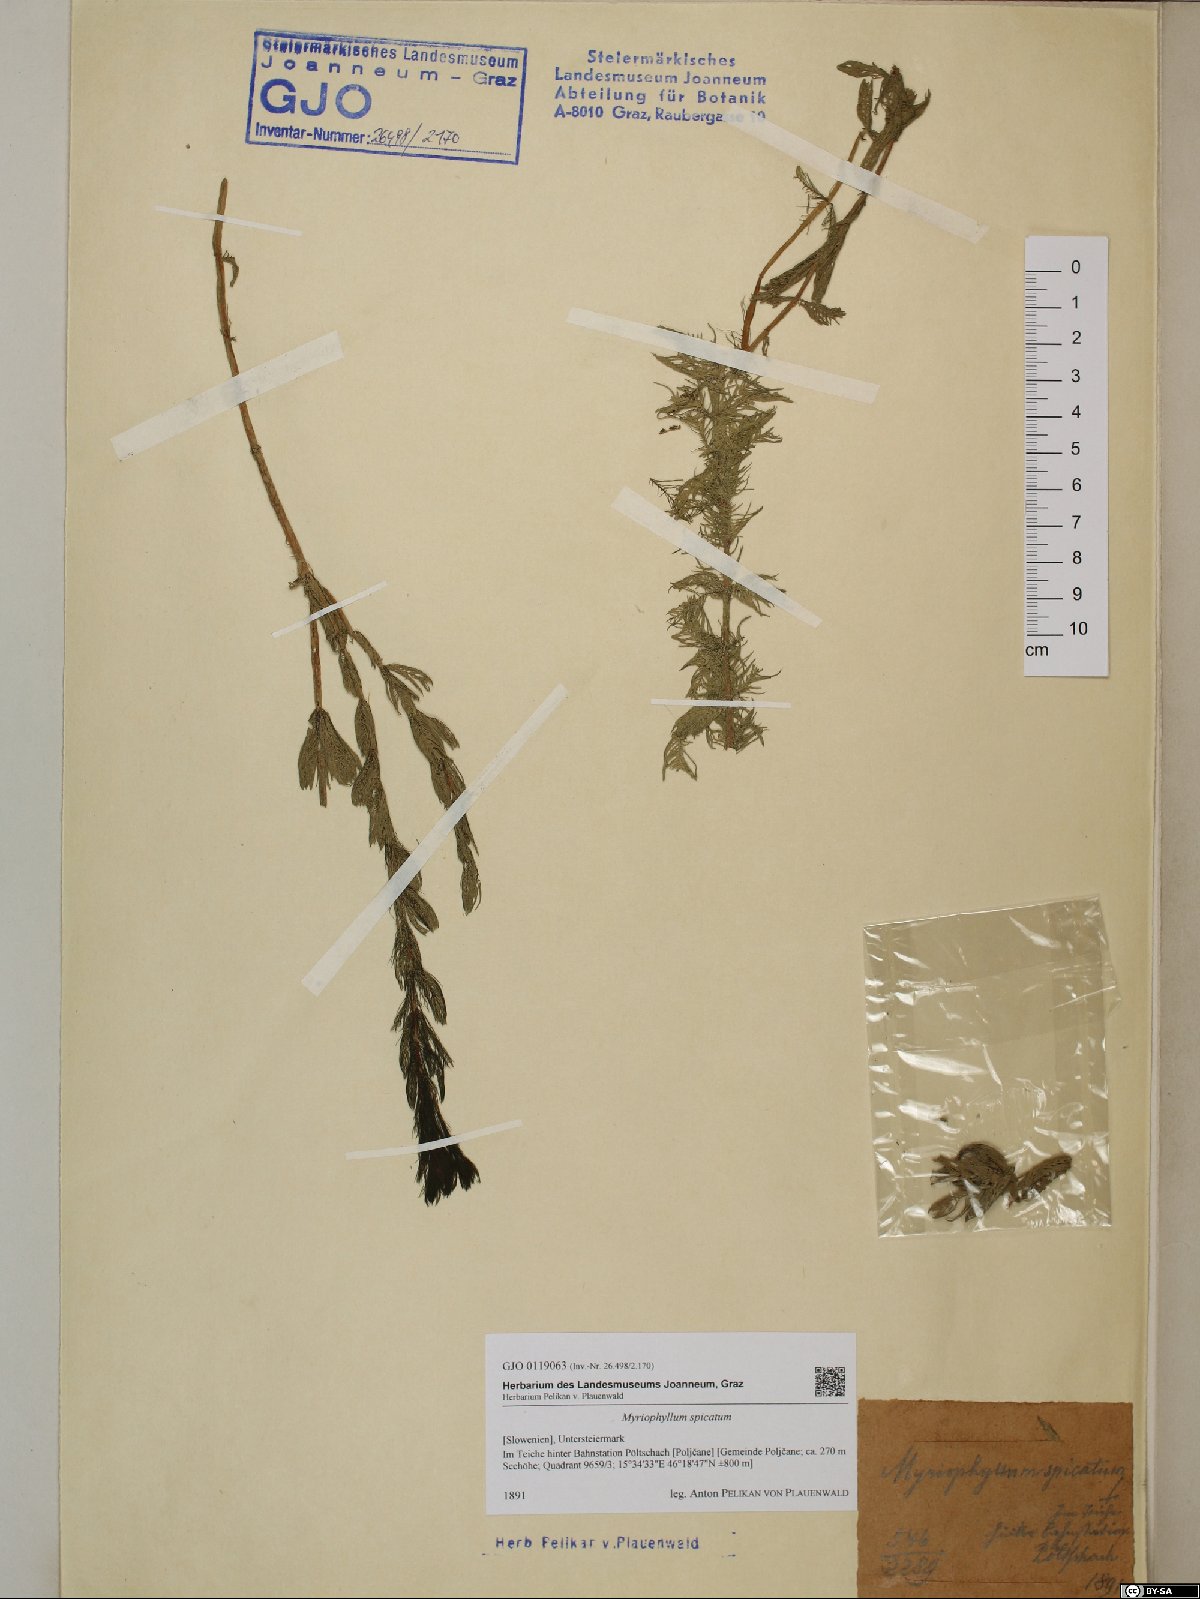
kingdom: Plantae
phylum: Tracheophyta
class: Magnoliopsida
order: Saxifragales
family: Haloragaceae
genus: Myriophyllum
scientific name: Myriophyllum spicatum
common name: Spiked water-milfoil
